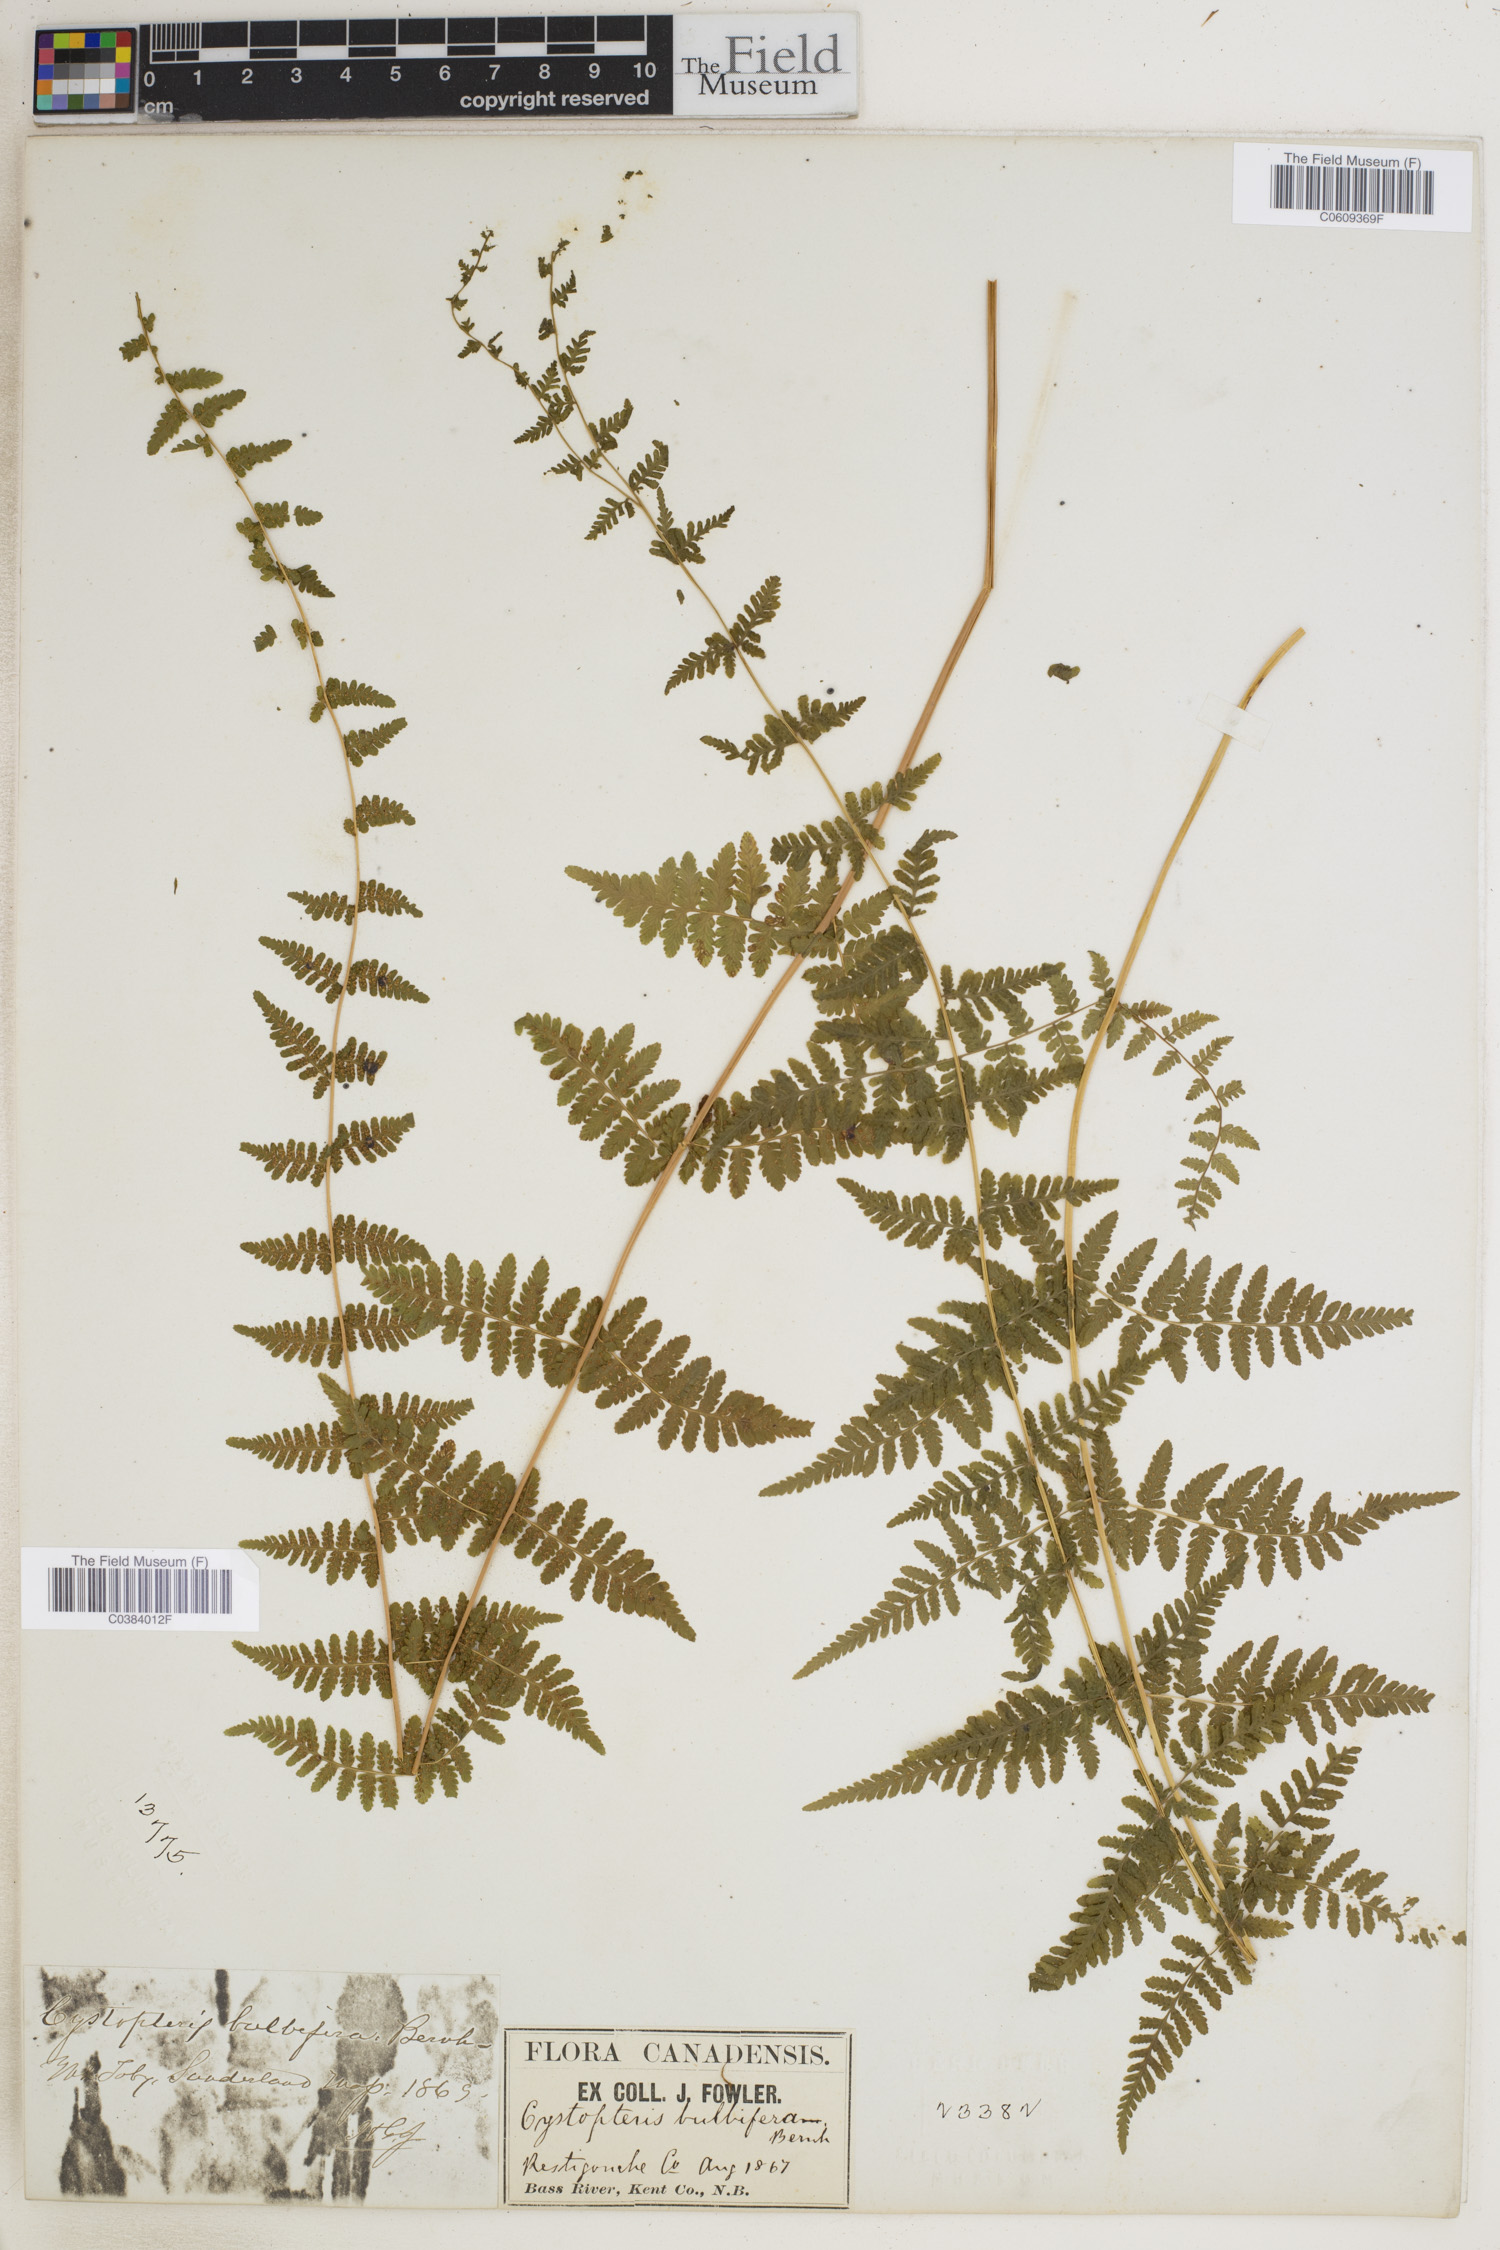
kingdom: Plantae
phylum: Tracheophyta
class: Polypodiopsida
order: Polypodiales
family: Cystopteridaceae
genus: Cystopteris
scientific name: Cystopteris bulbifera
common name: Bulblet bladder fern
